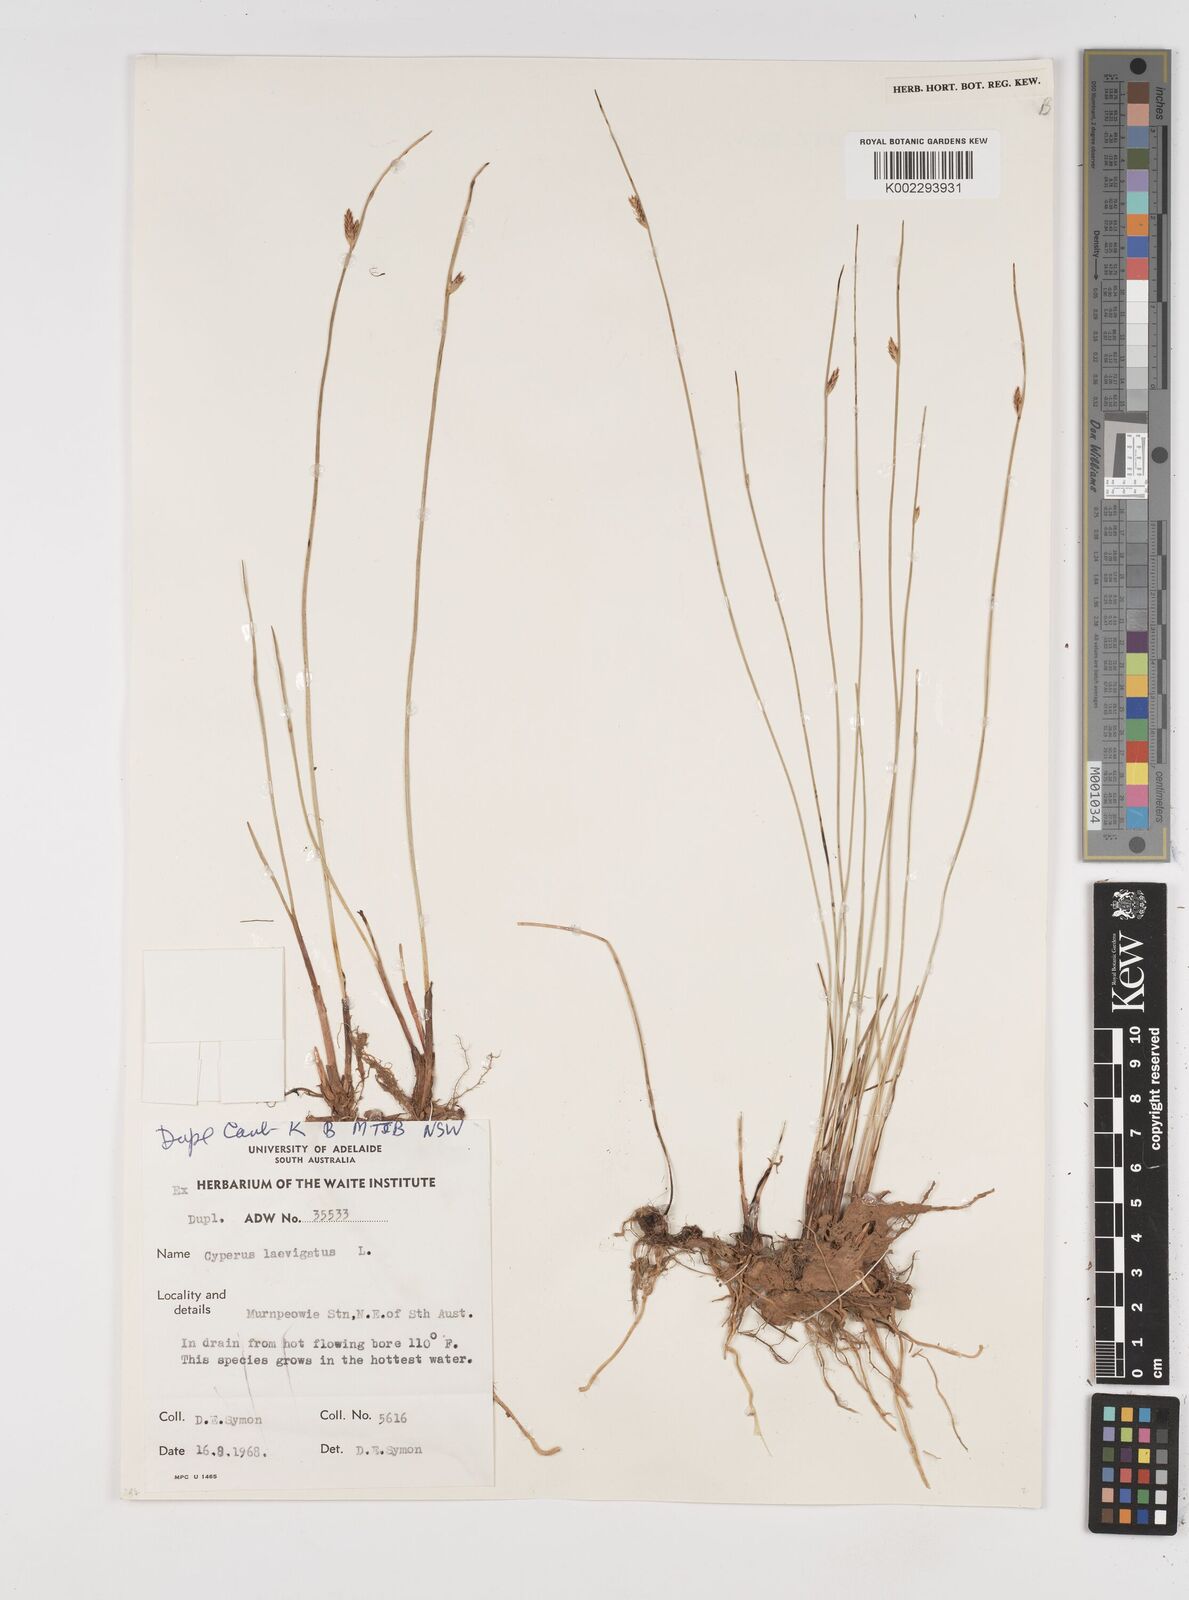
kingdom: Plantae
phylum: Tracheophyta
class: Liliopsida
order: Poales
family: Cyperaceae
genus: Cyperus
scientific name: Cyperus laevigatus
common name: Smooth flat sedge
